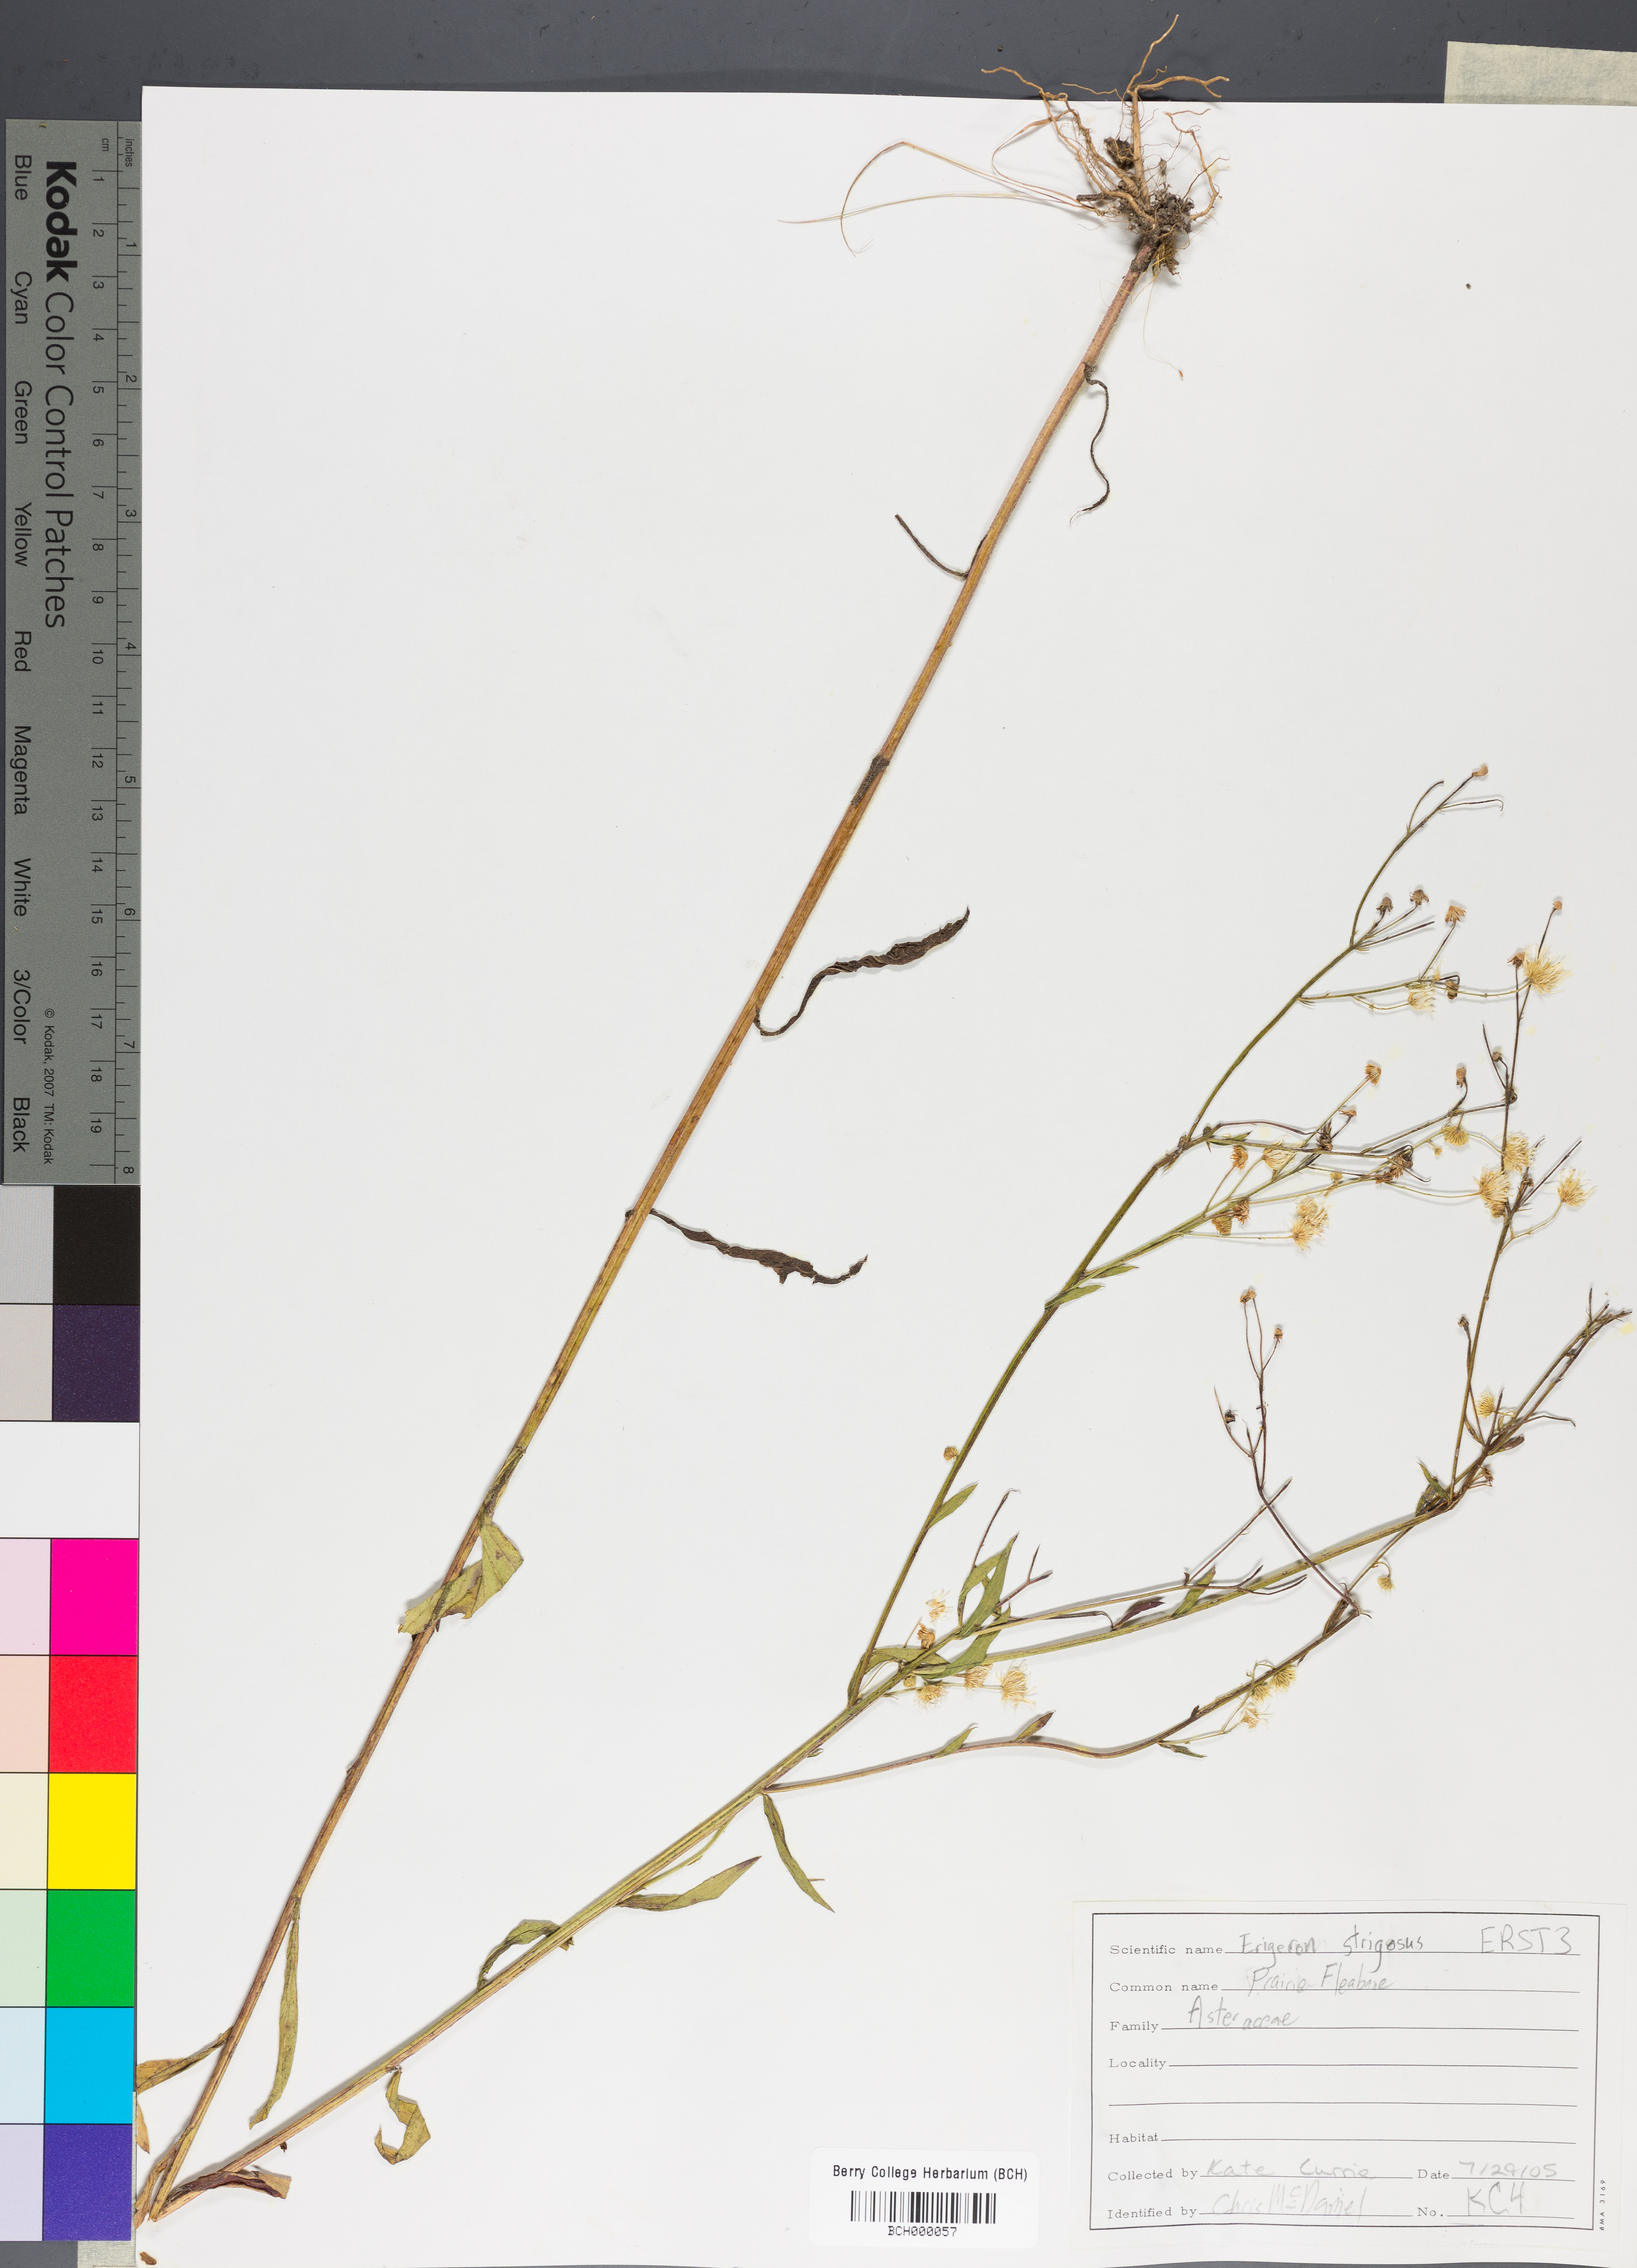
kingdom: Plantae
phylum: Tracheophyta
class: Magnoliopsida
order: Asterales
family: Asteraceae
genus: Erigeron
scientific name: Erigeron strigosus
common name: Common eastern fleabane
